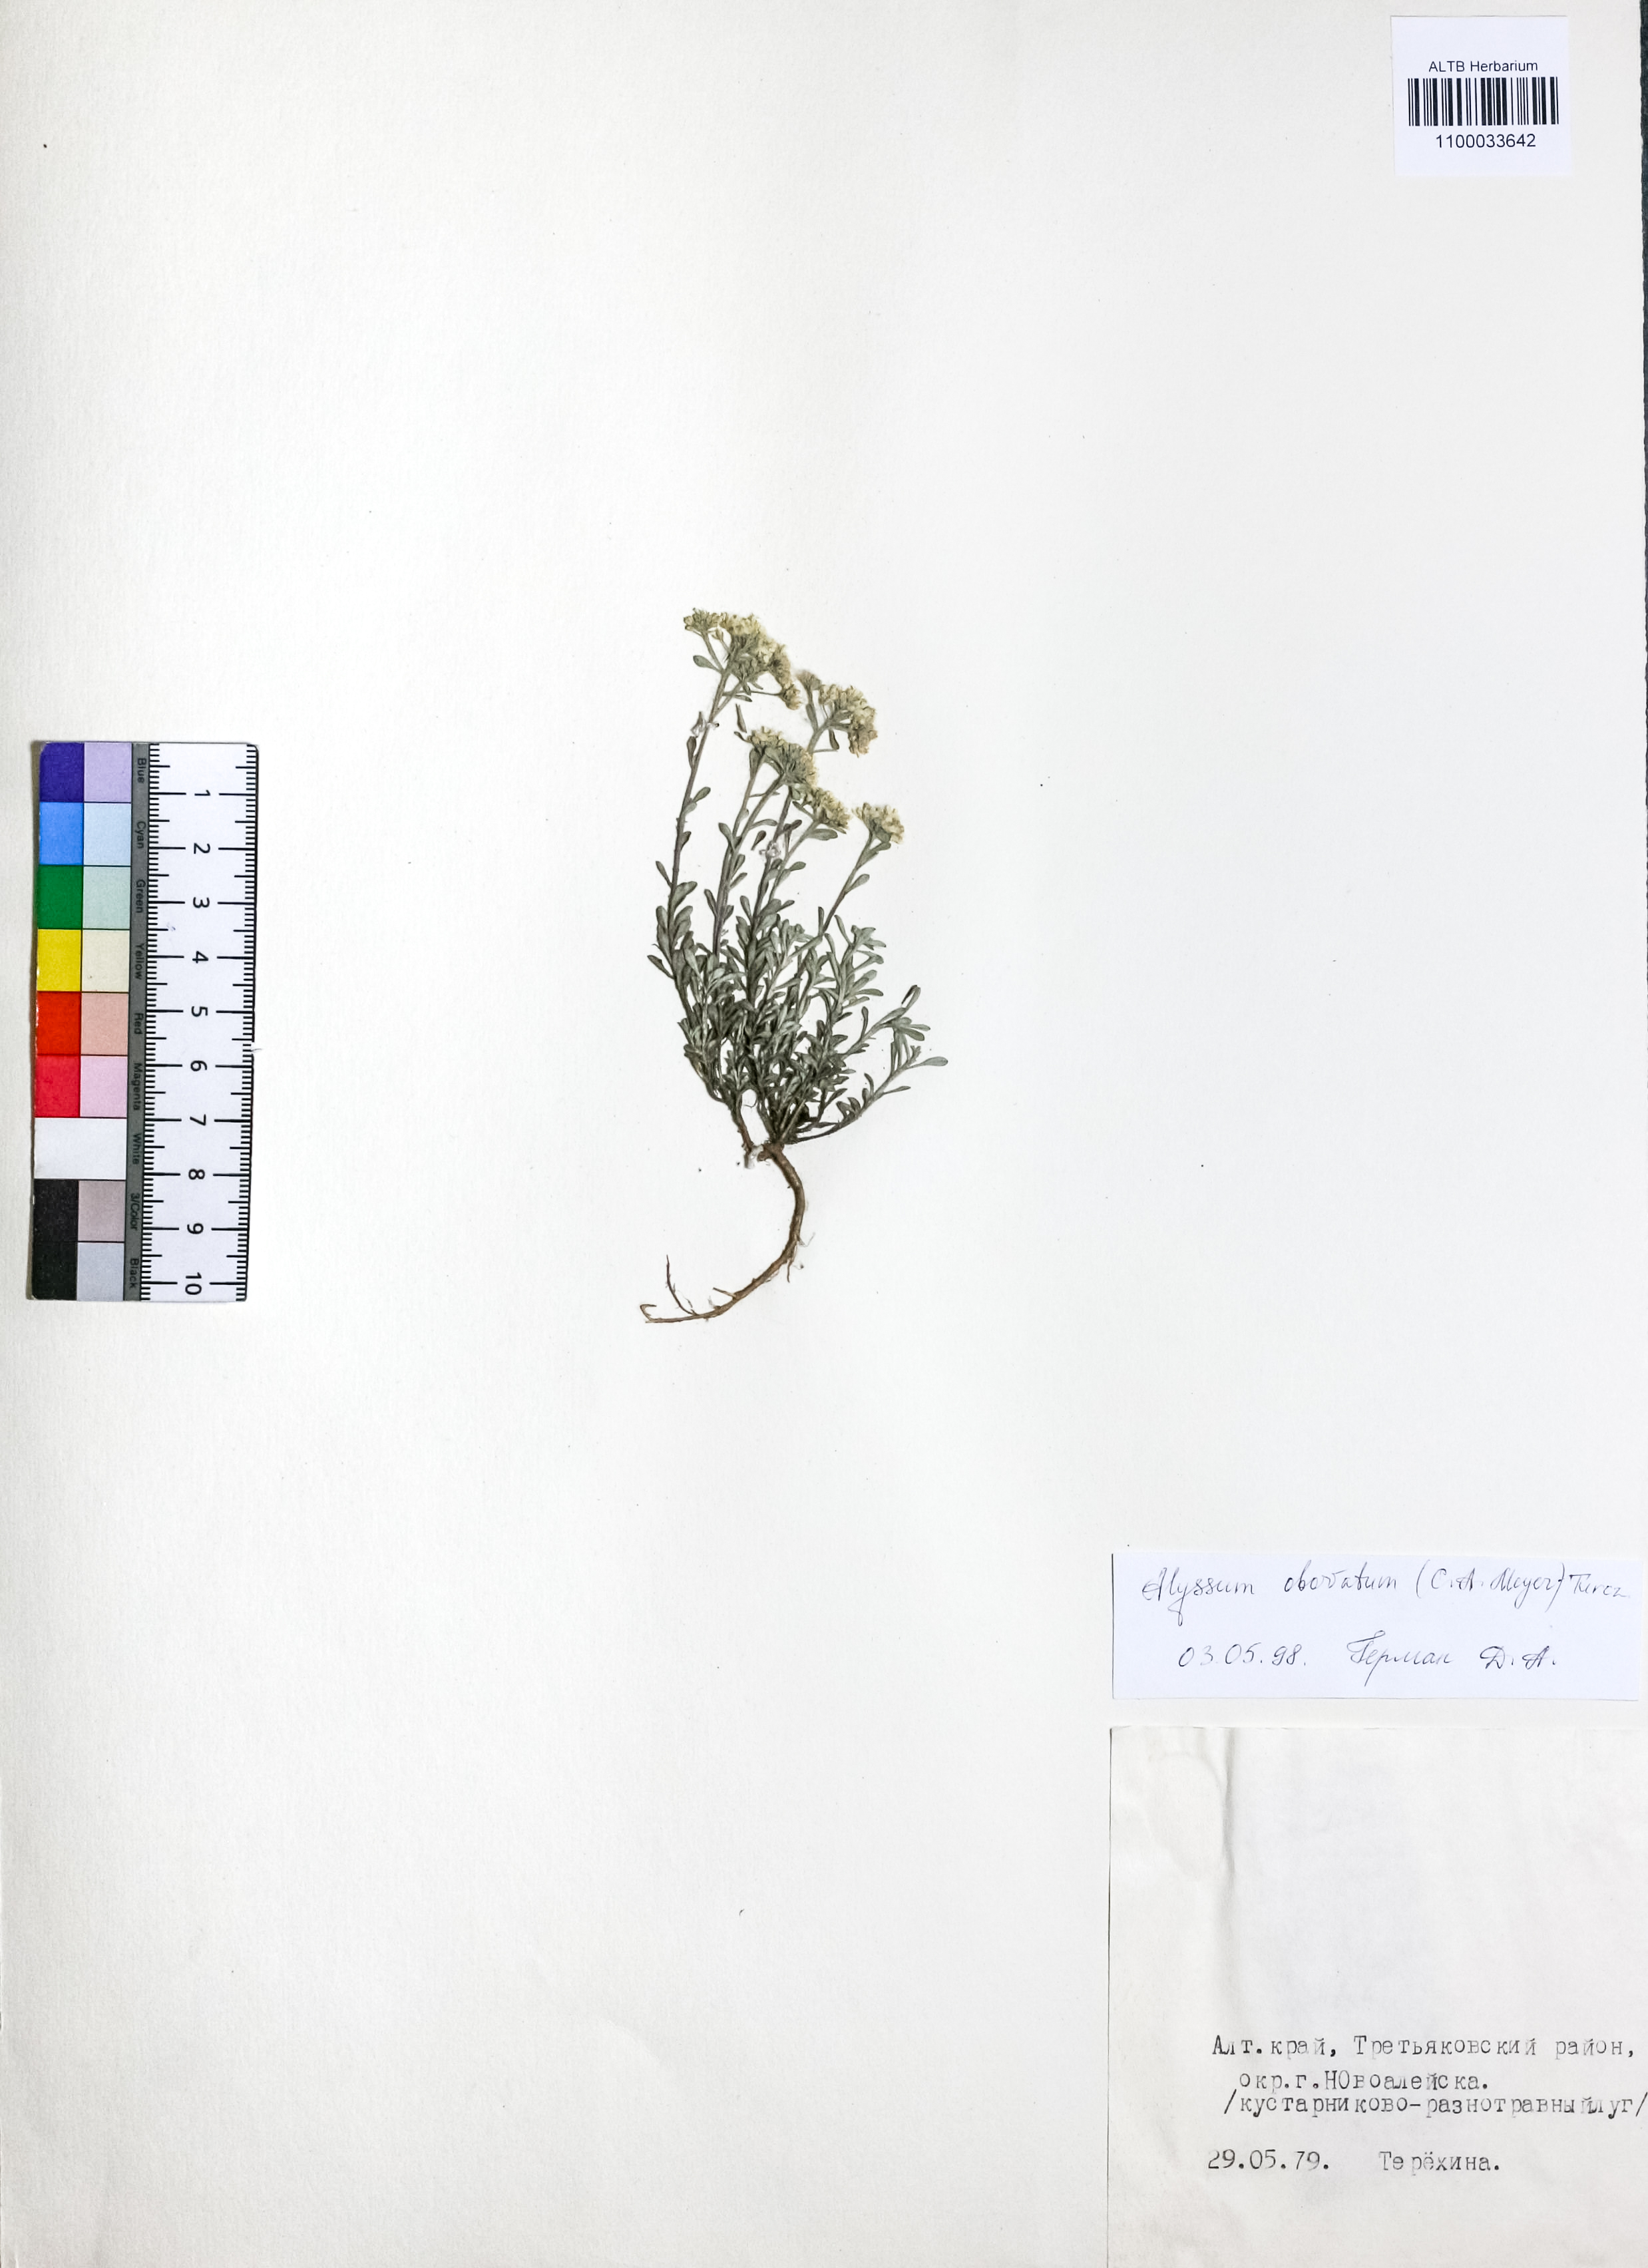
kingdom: Plantae
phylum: Tracheophyta
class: Magnoliopsida
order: Brassicales
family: Brassicaceae
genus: Odontarrhena
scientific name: Odontarrhena obovata
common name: American alyssum
